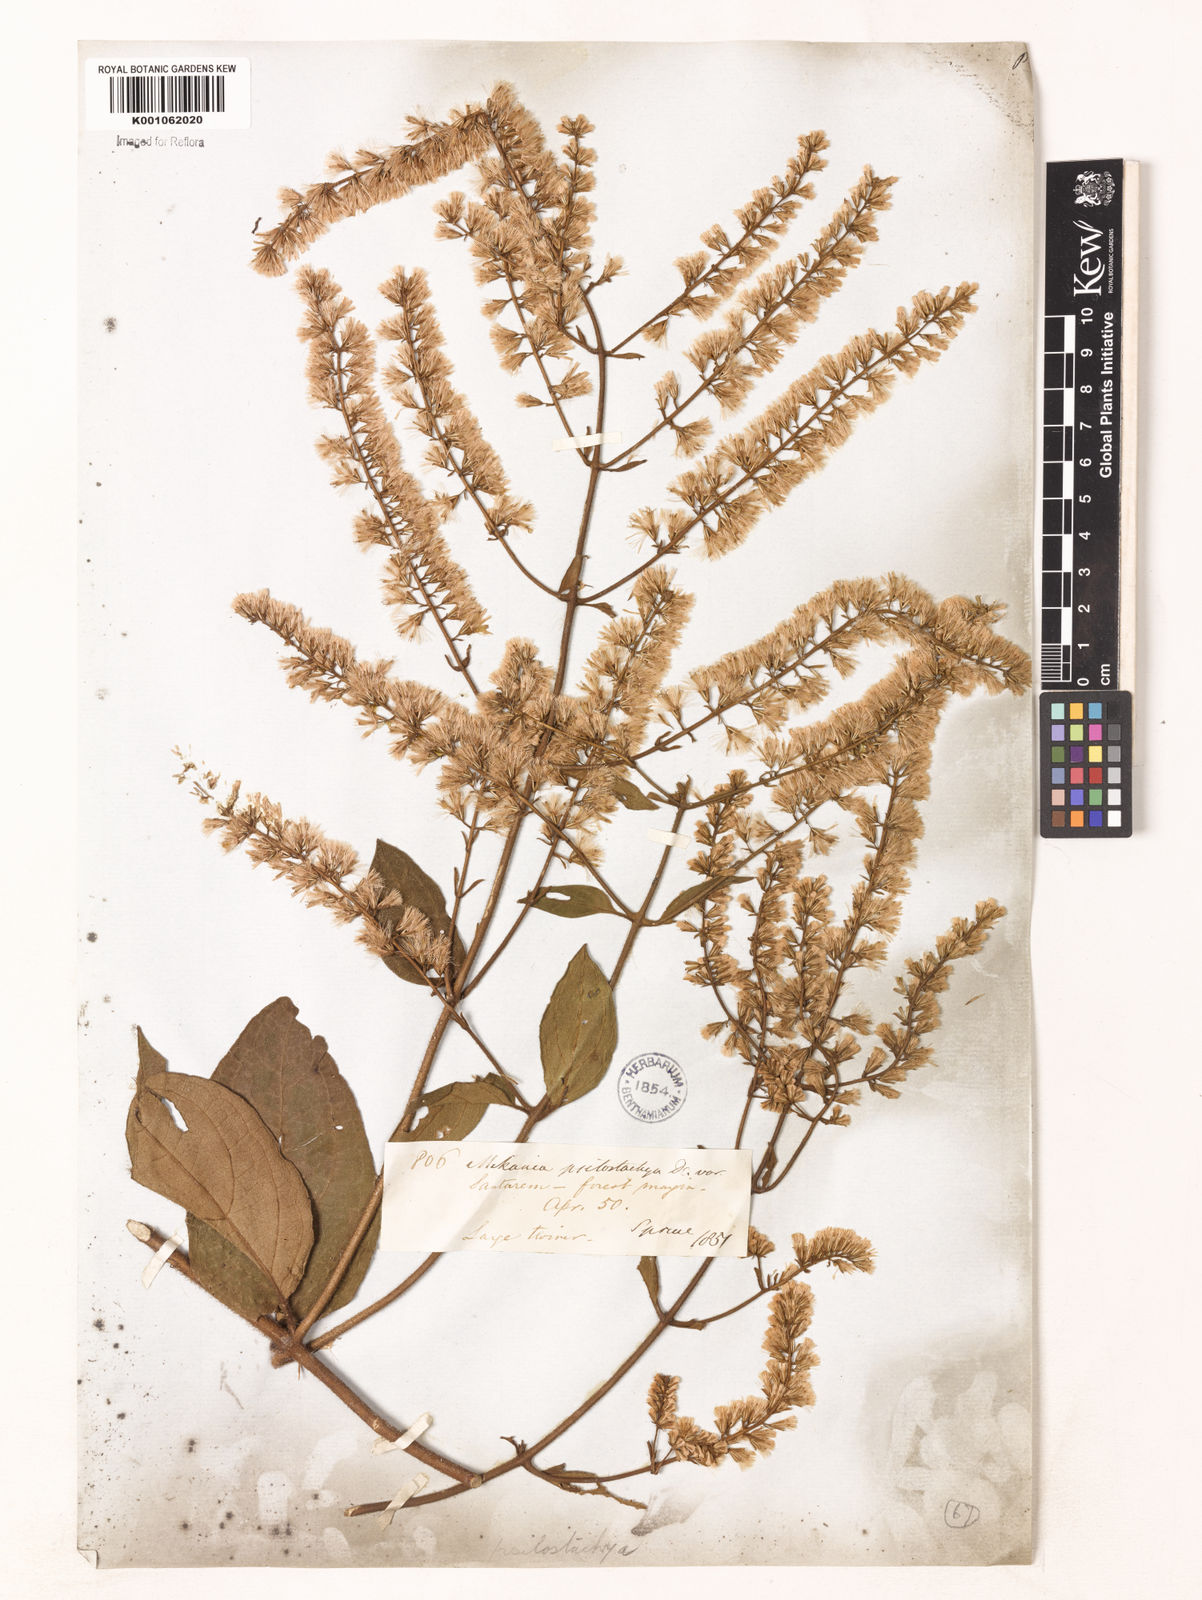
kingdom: Plantae
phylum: Tracheophyta
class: Magnoliopsida
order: Asterales
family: Asteraceae
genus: Mikania
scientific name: Mikania psilostachya
